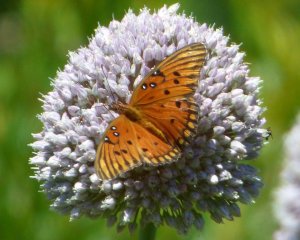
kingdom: Animalia
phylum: Arthropoda
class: Insecta
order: Lepidoptera
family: Nymphalidae
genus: Dione
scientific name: Dione vanillae
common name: Gulf Fritillary
